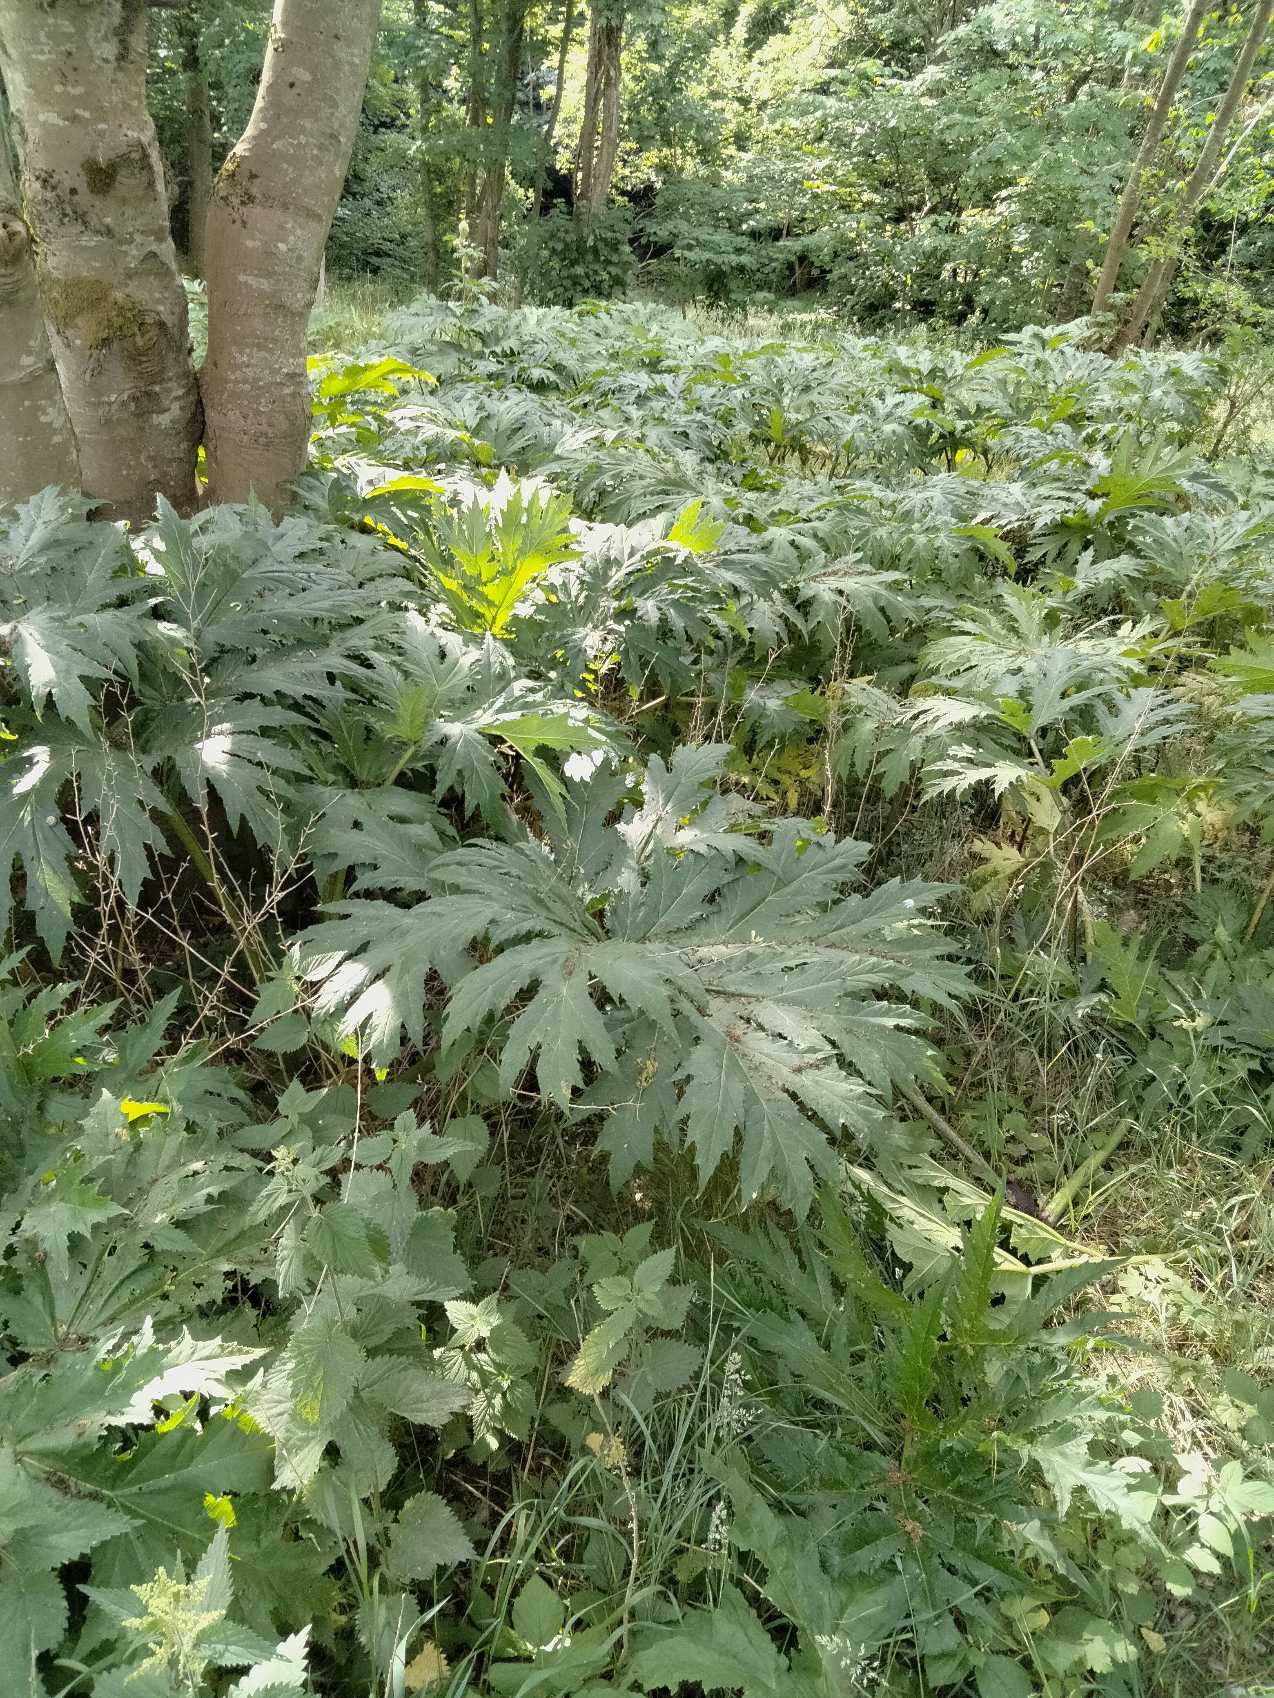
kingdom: Plantae
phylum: Tracheophyta
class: Magnoliopsida
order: Apiales
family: Apiaceae
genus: Heracleum
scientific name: Heracleum mantegazzianum
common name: Kæmpe-bjørneklo
